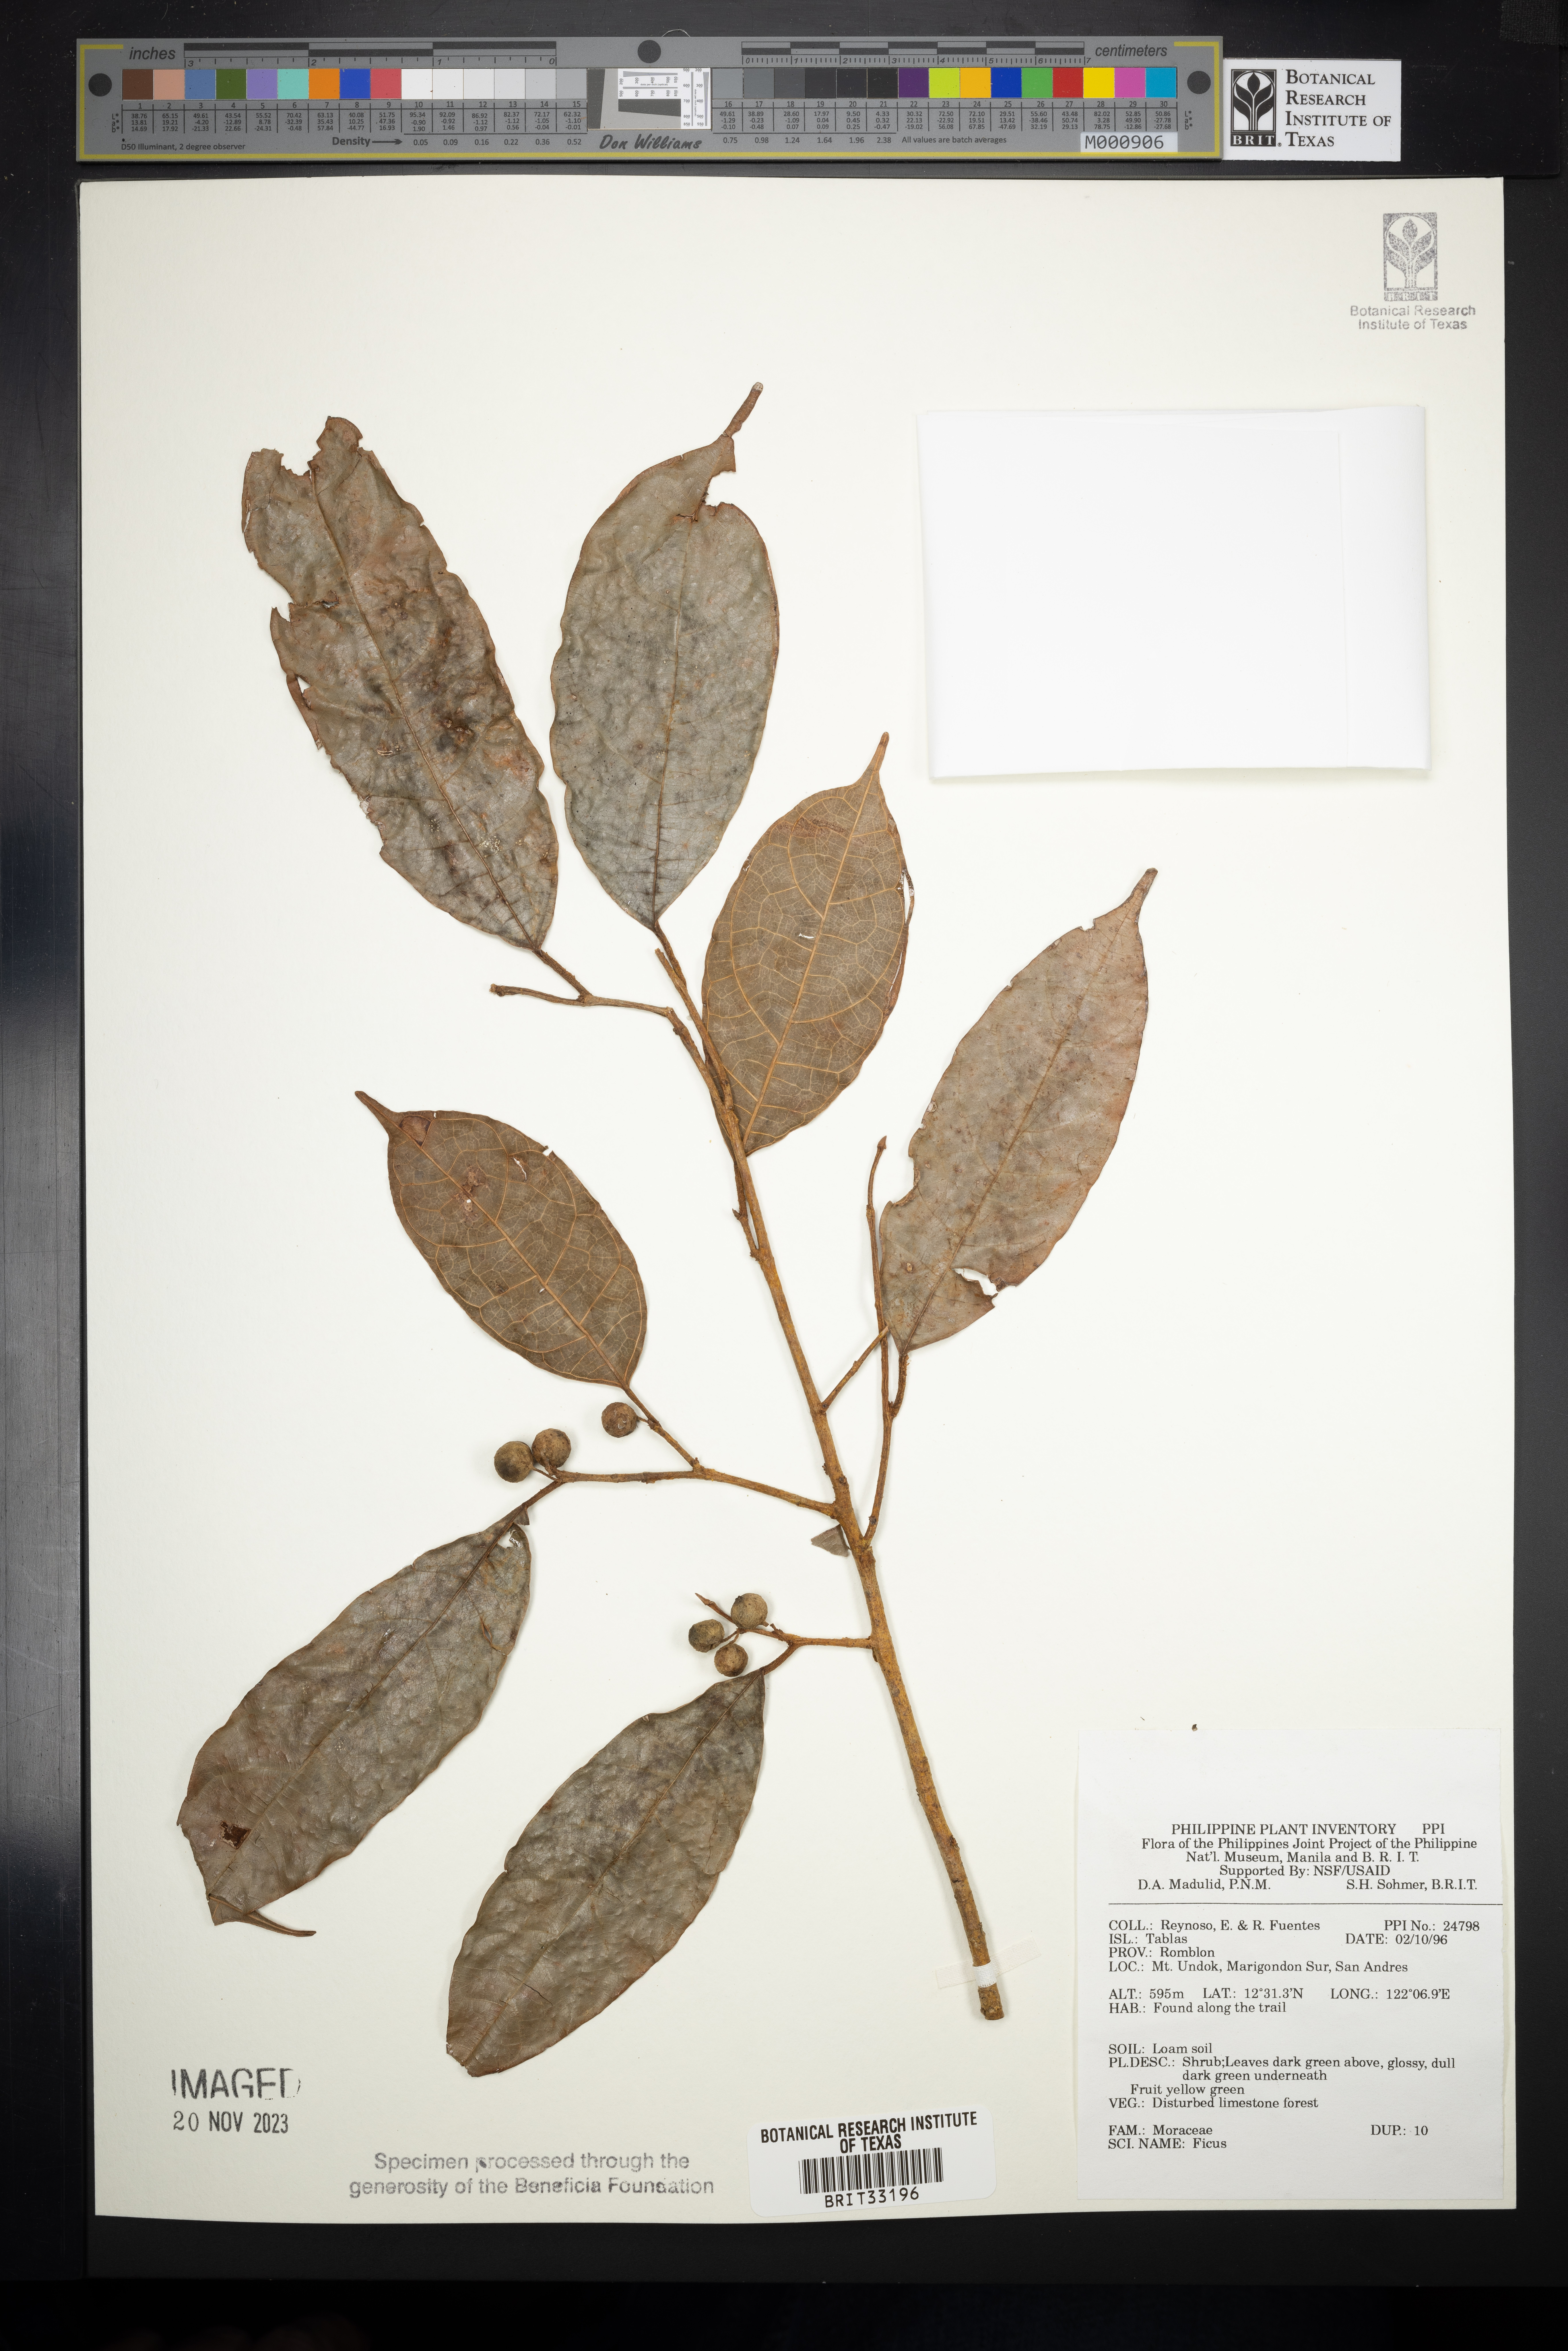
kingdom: Plantae
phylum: Tracheophyta
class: Magnoliopsida
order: Rosales
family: Moraceae
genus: Ficus
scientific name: Ficus
